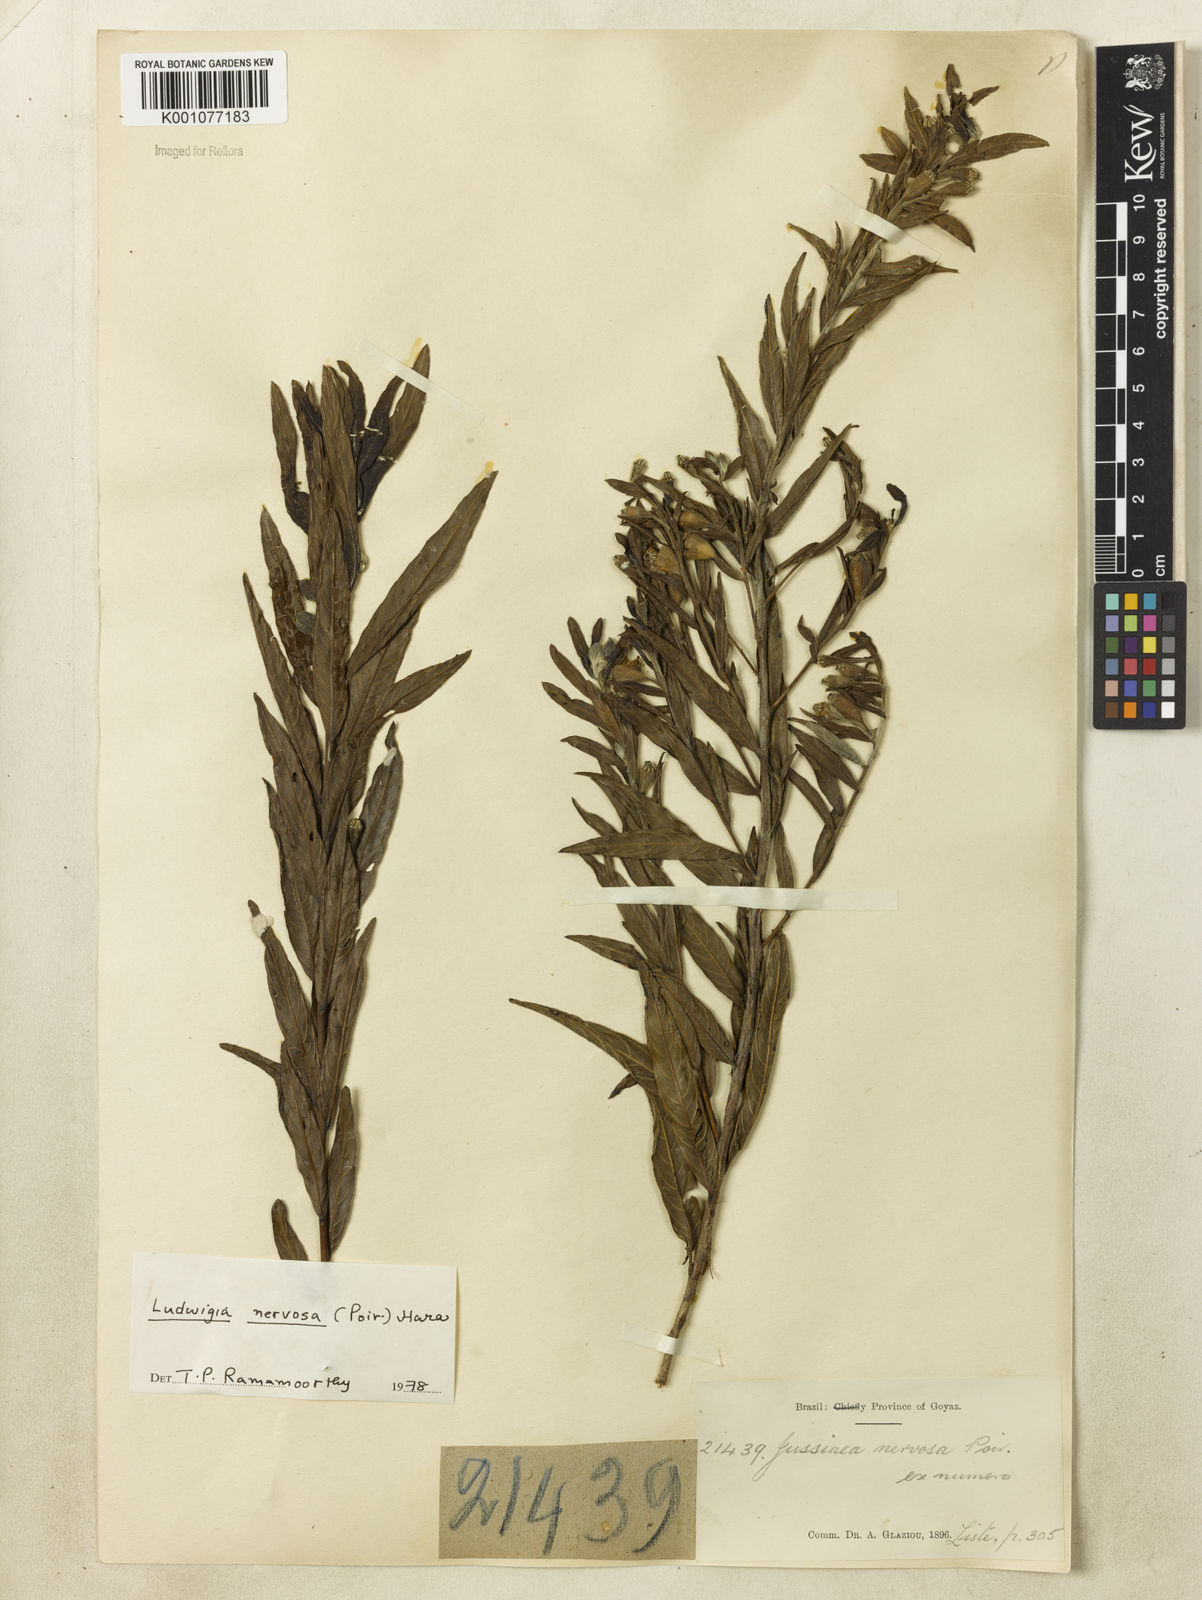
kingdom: Plantae
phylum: Tracheophyta
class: Magnoliopsida
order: Myrtales
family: Onagraceae
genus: Ludwigia
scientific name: Ludwigia nervosa
